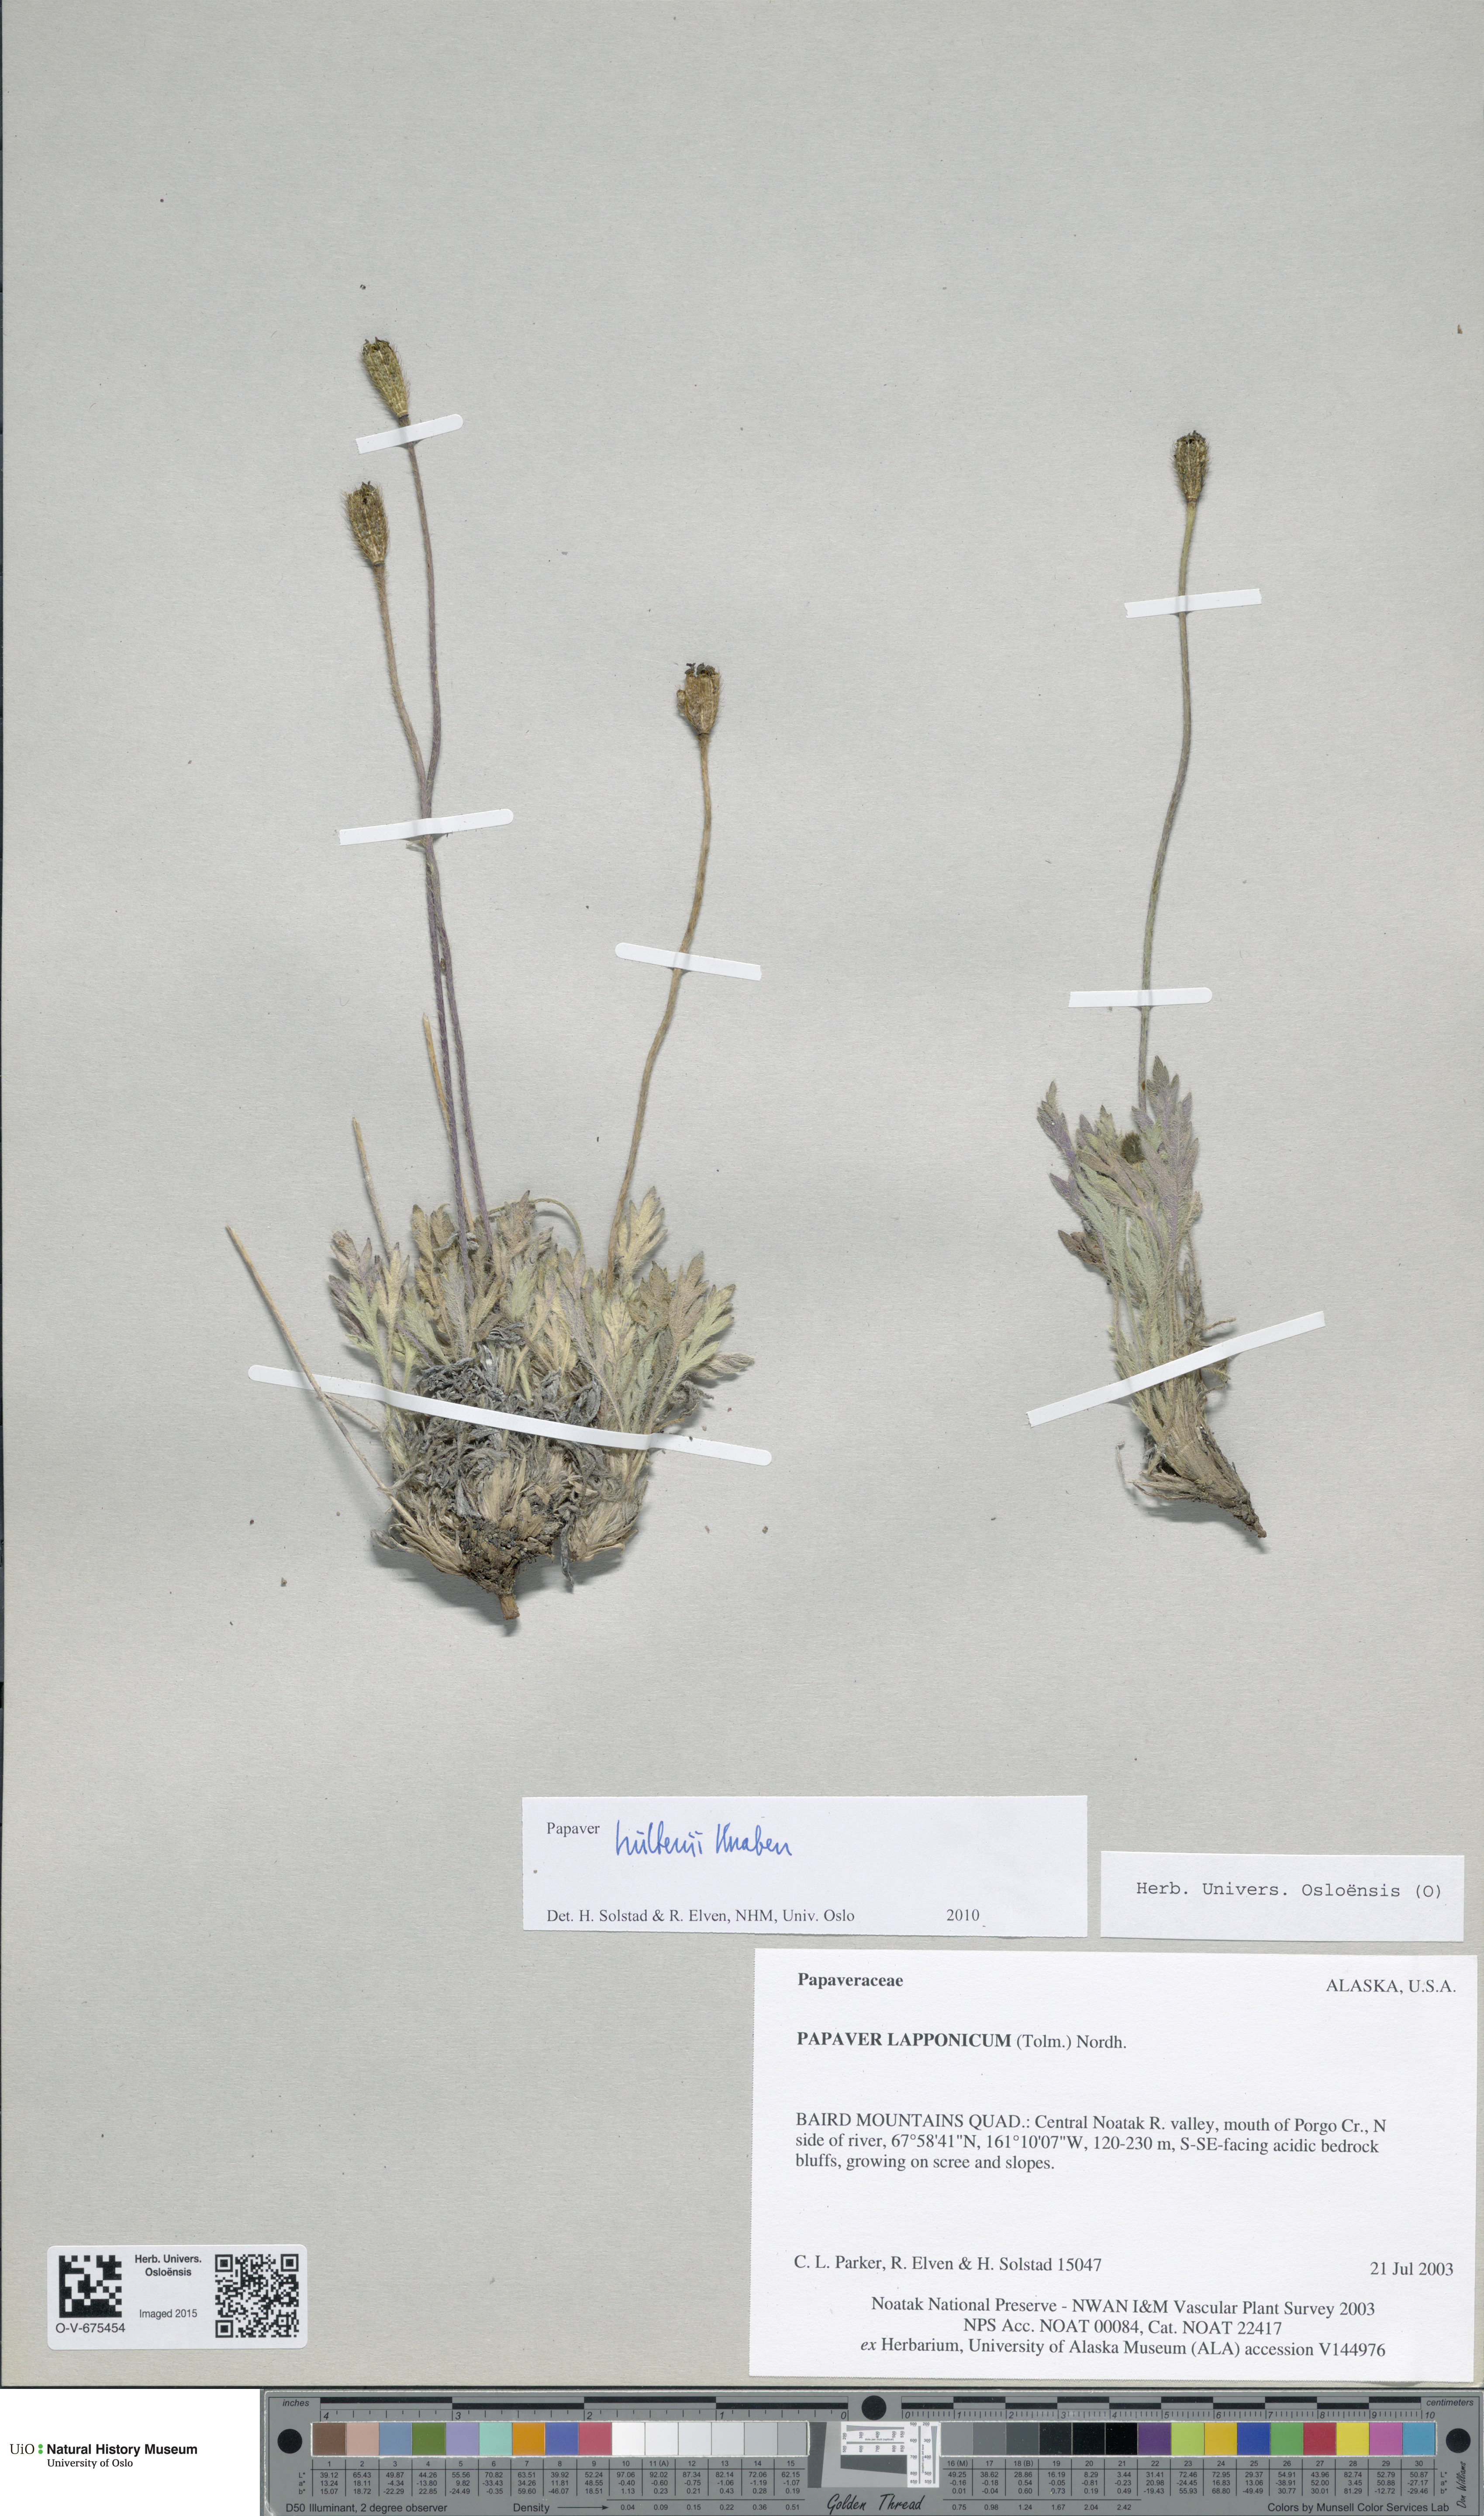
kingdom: Plantae
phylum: Tracheophyta
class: Magnoliopsida
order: Ranunculales
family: Papaveraceae
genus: Papaver
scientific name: Papaver lapponicum
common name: Lapland poppy
